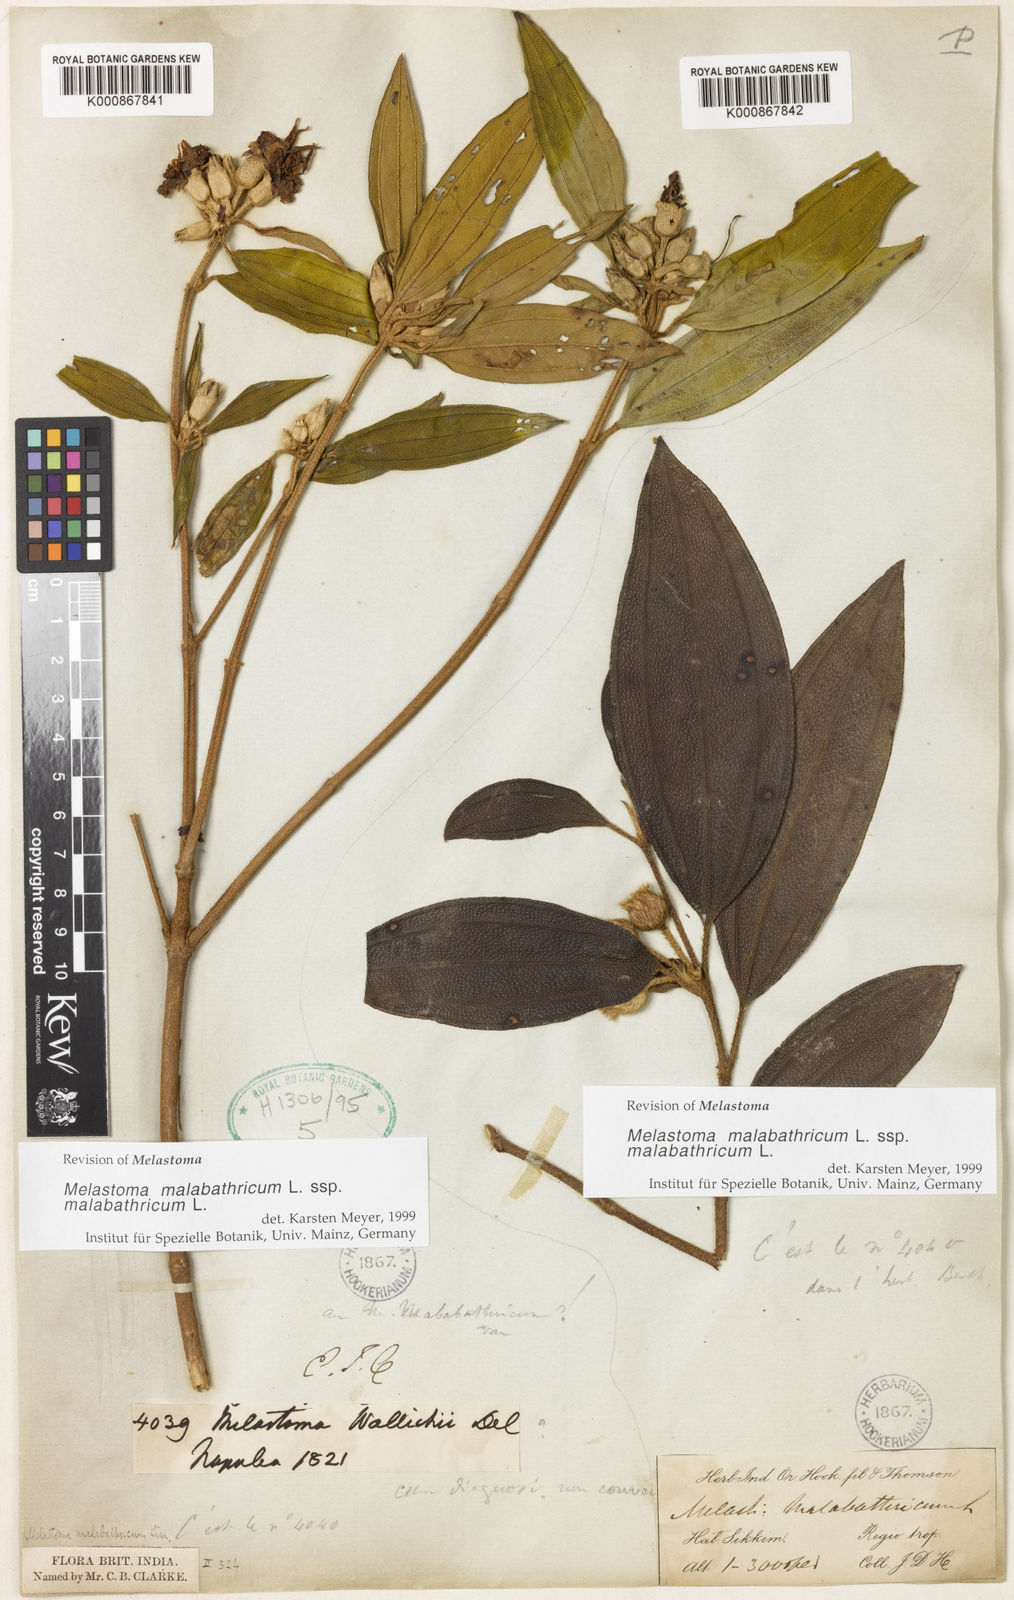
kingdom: Plantae
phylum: Tracheophyta
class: Magnoliopsida
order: Myrtales
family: Melastomataceae
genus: Melastoma
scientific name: Melastoma malabathricum
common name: Indian-rhododendron
